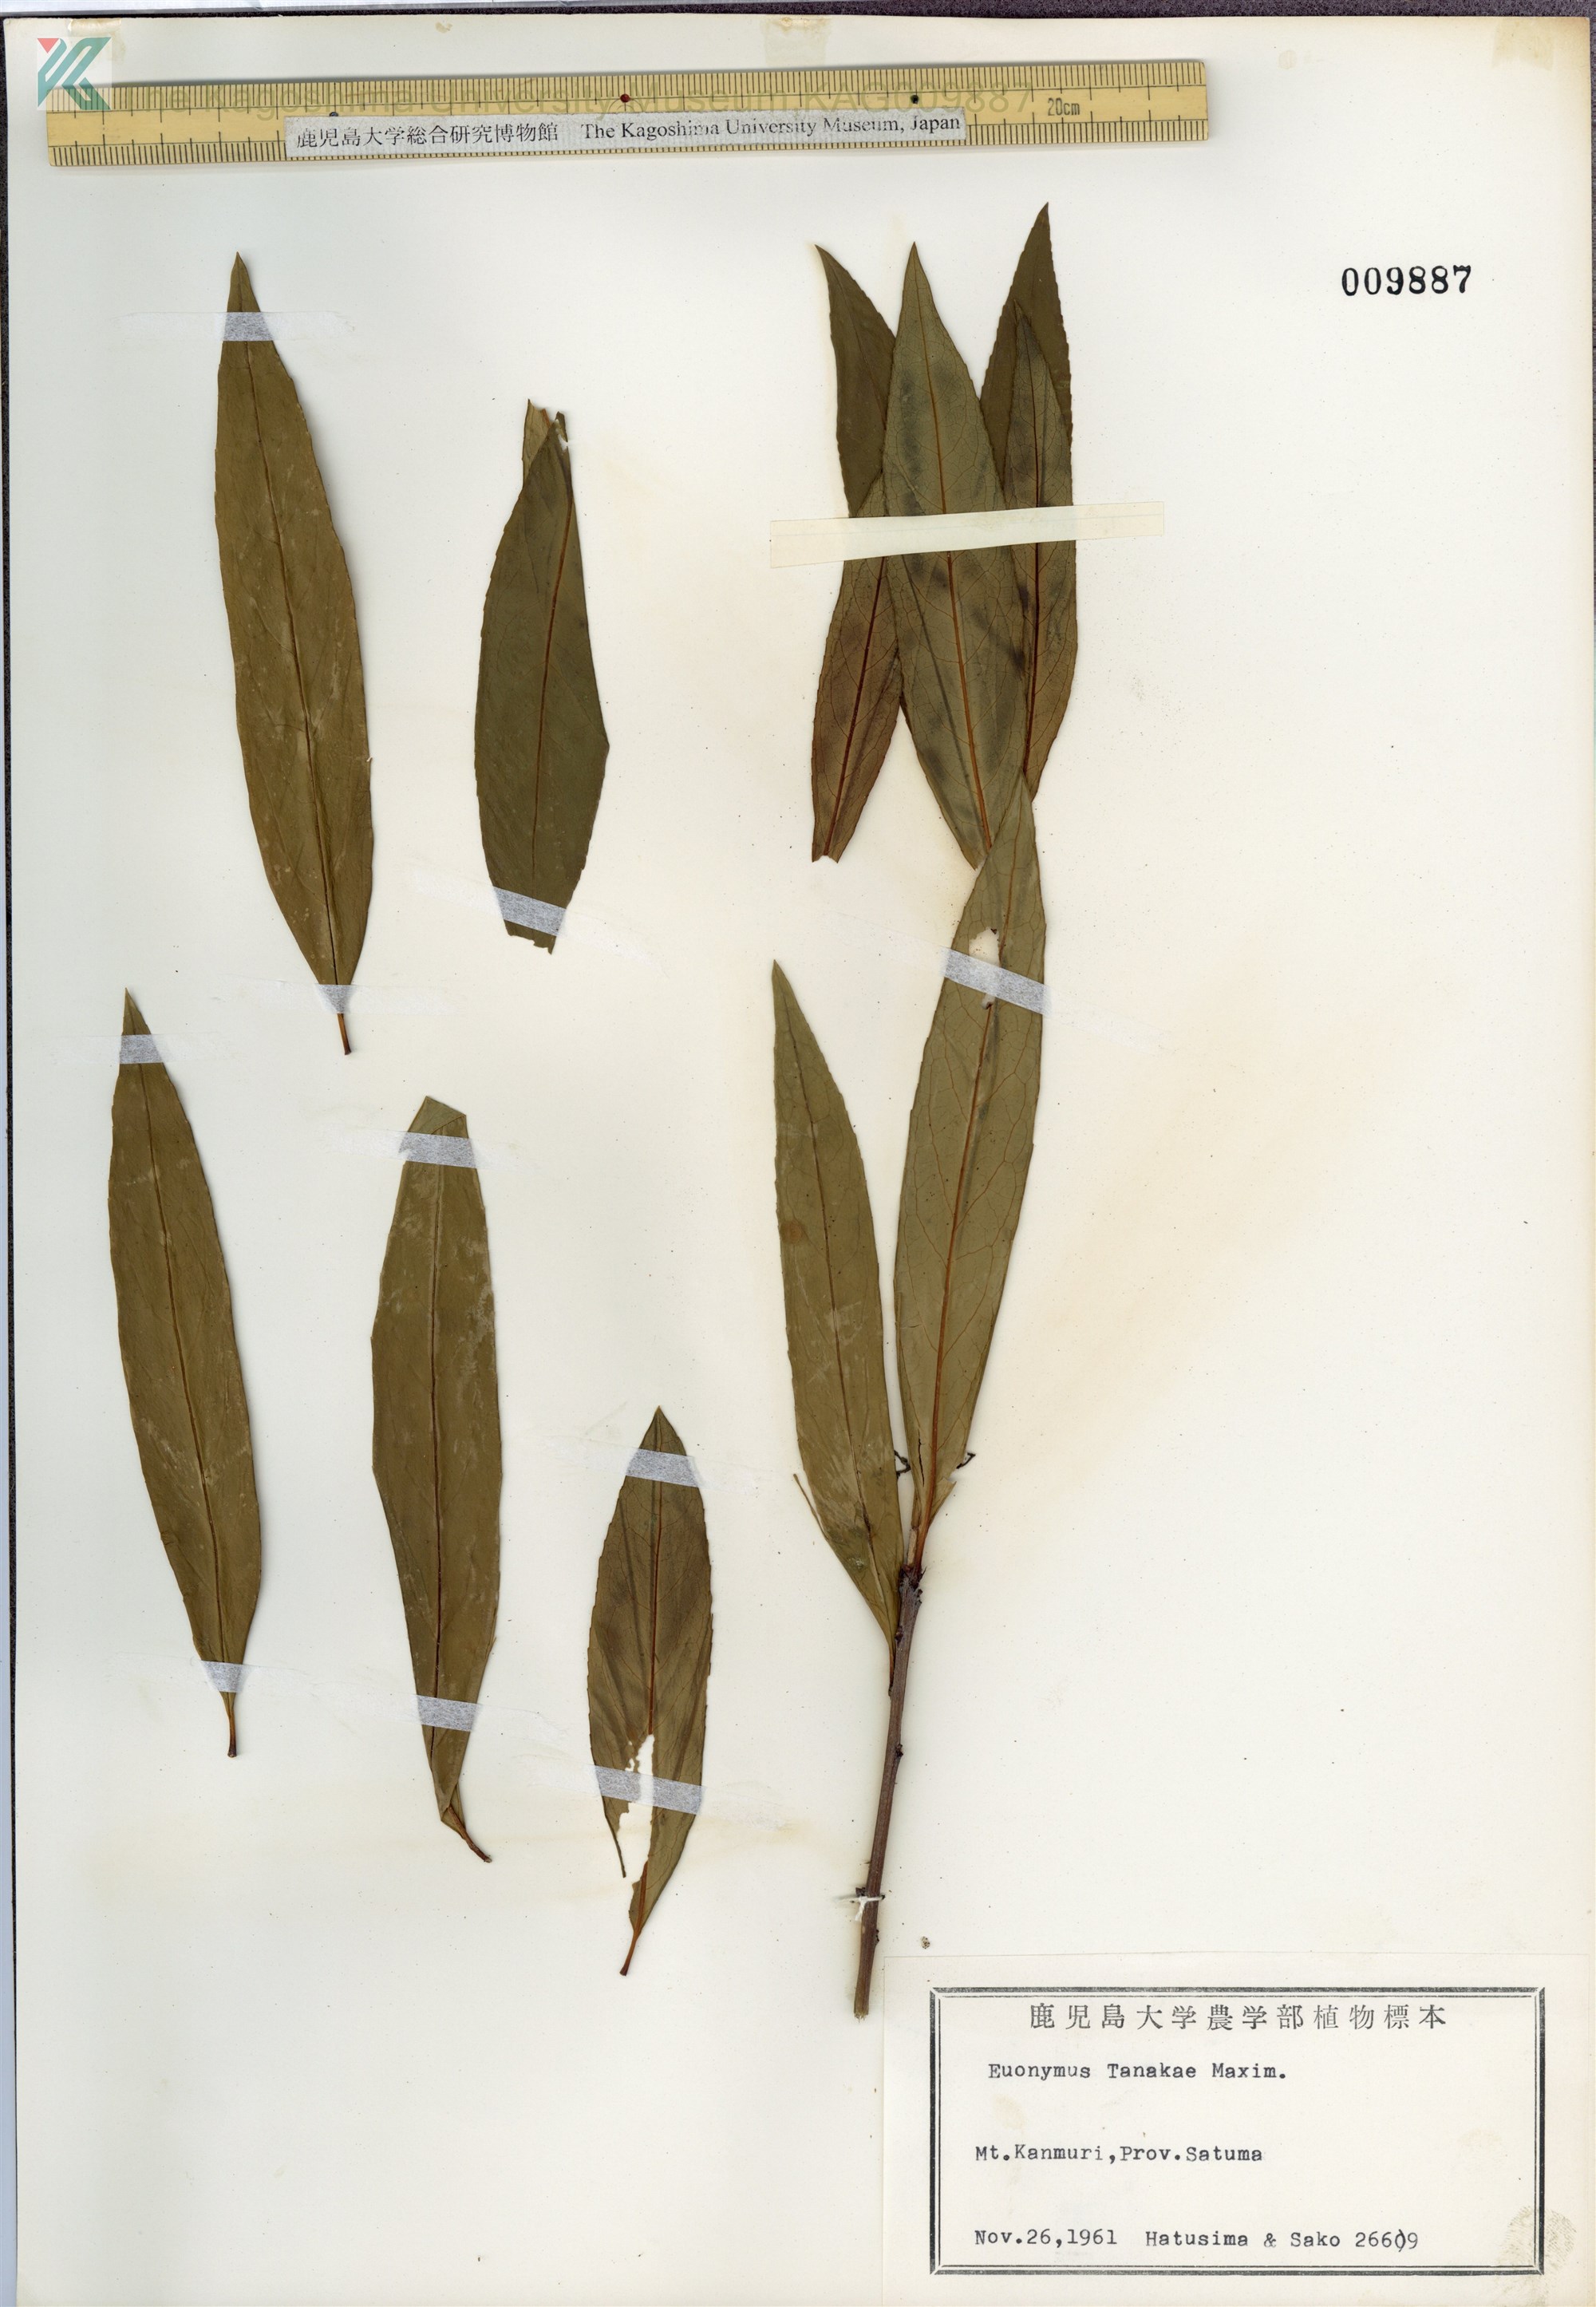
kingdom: Plantae
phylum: Tracheophyta
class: Magnoliopsida
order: Celastrales
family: Celastraceae
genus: Euonymus
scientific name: Euonymus carnosus
